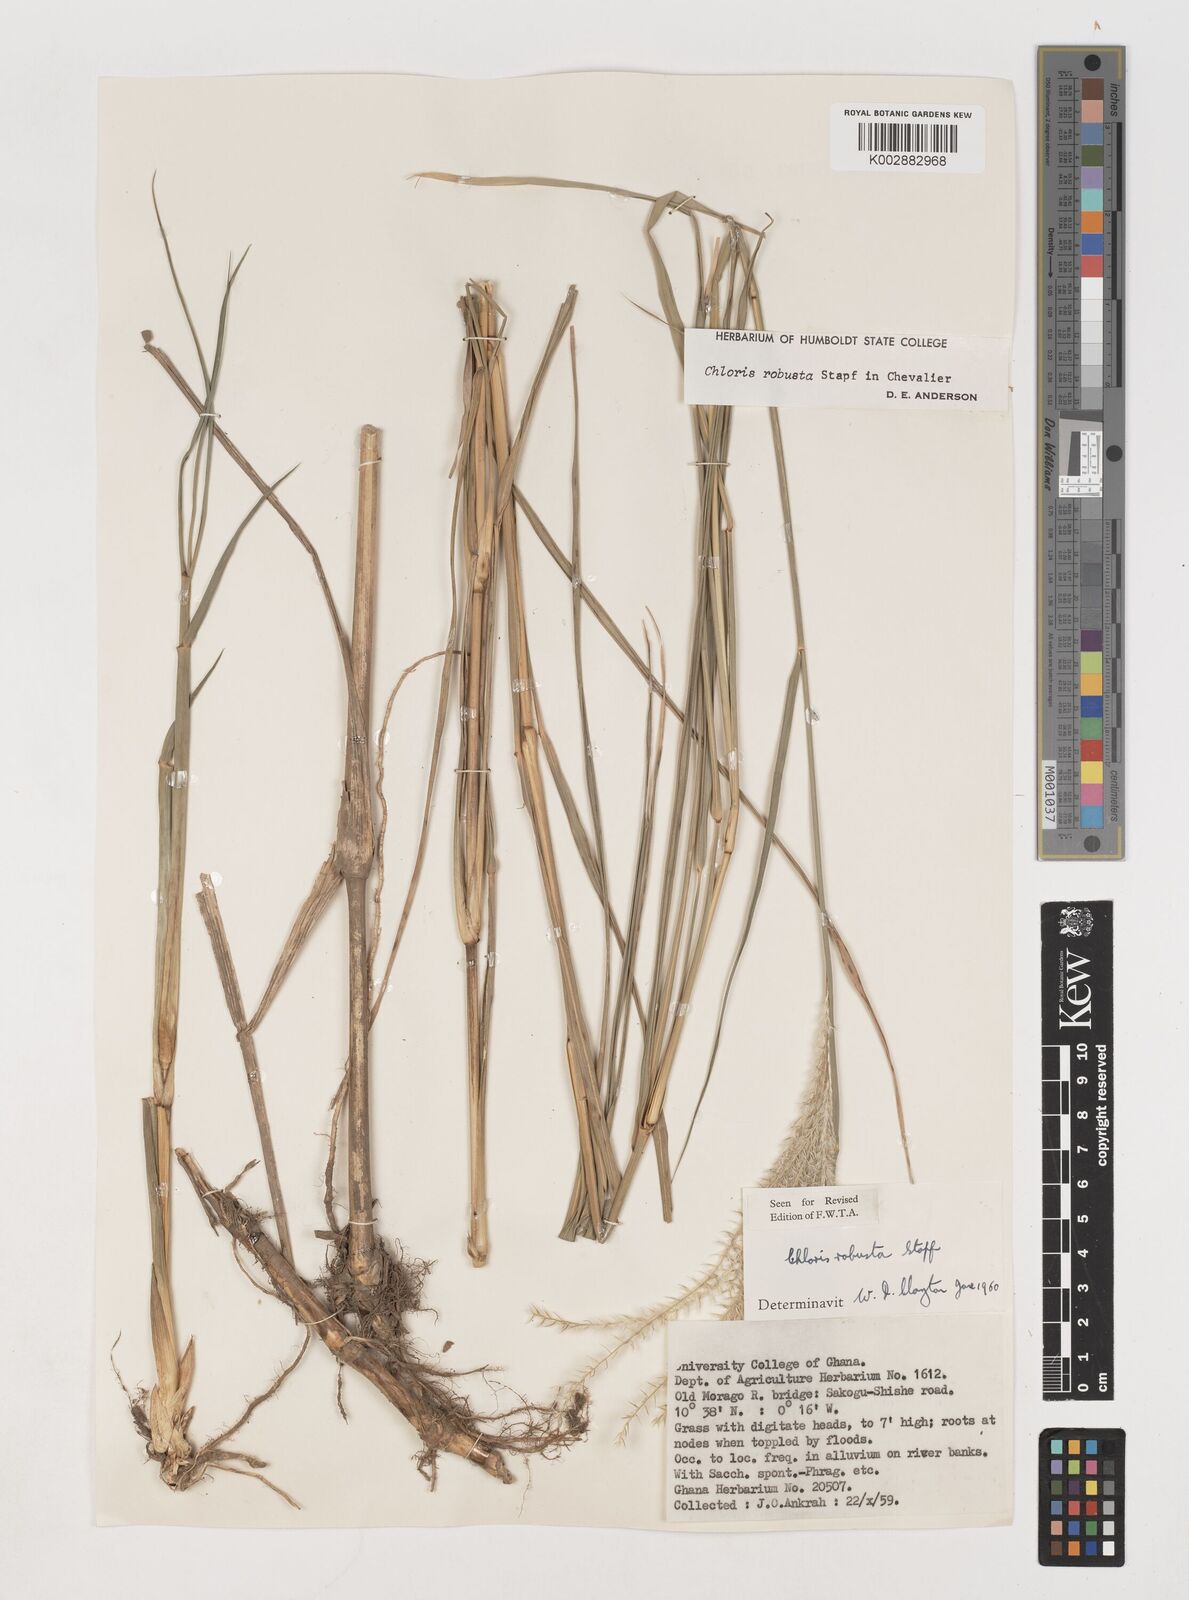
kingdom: Plantae
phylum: Tracheophyta
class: Liliopsida
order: Poales
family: Poaceae
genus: Chloris
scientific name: Chloris robusta
